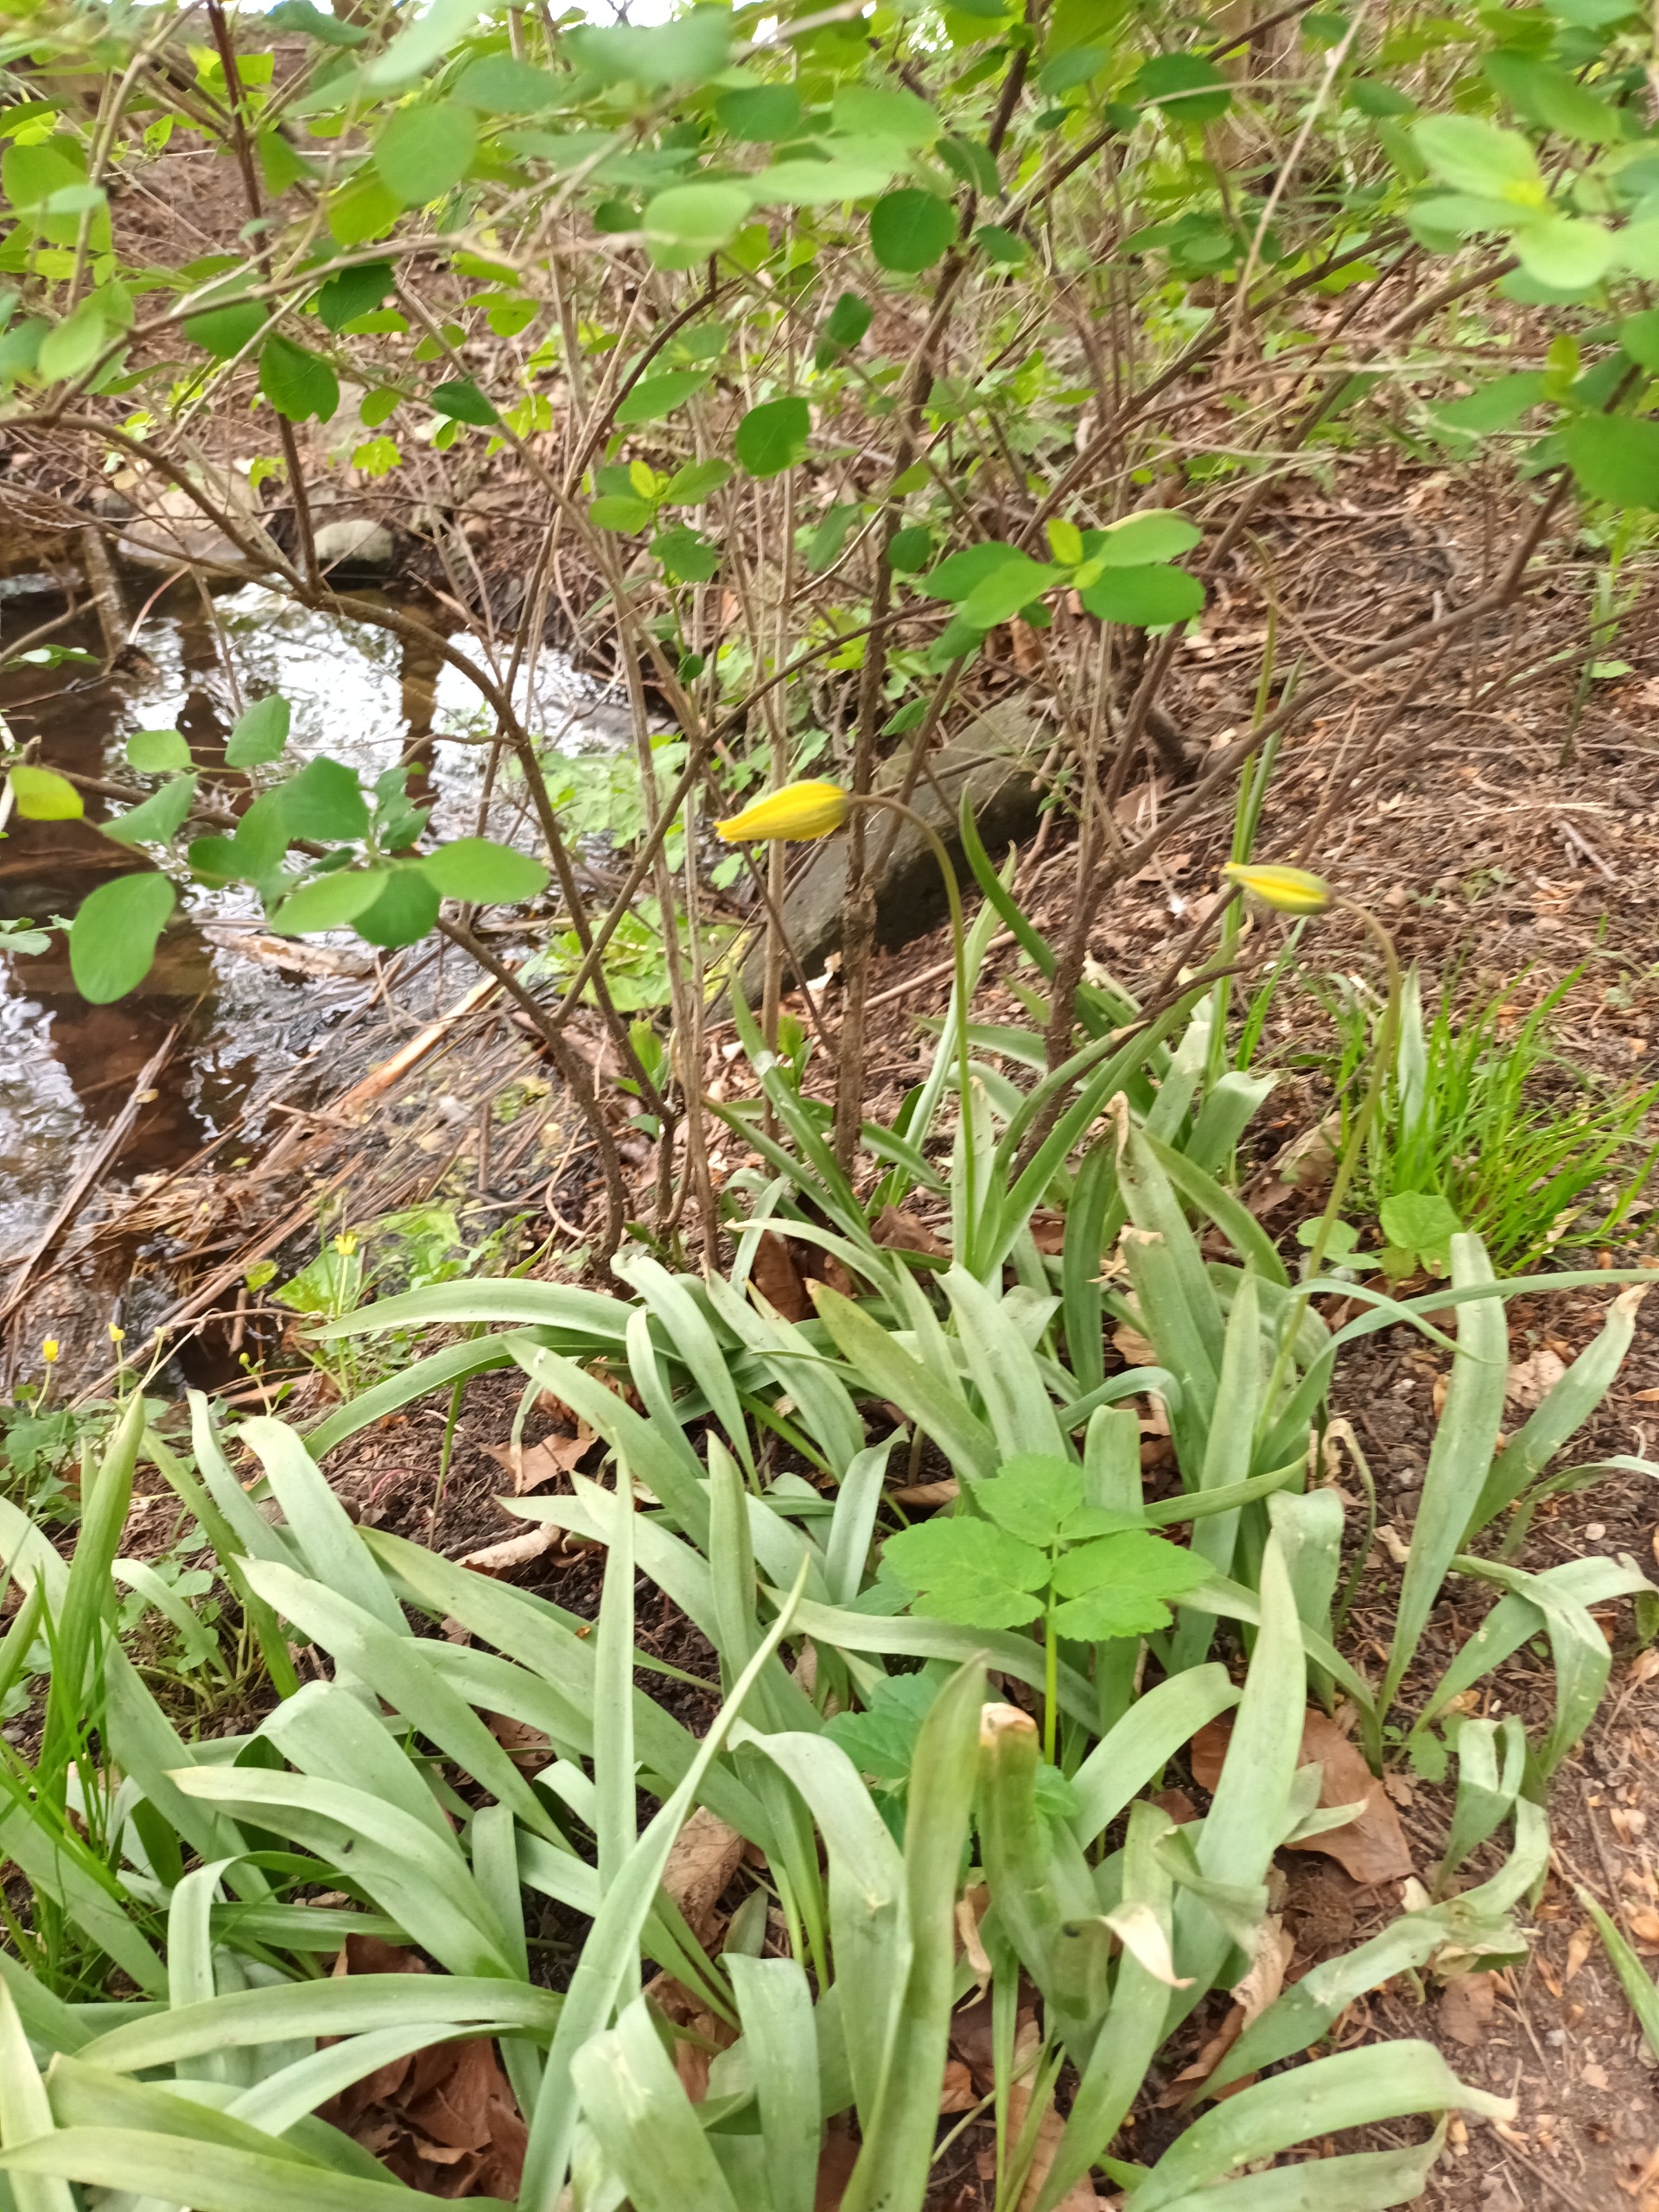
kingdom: Plantae
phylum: Tracheophyta
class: Liliopsida
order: Liliales
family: Liliaceae
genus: Tulipa
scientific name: Tulipa sylvestris
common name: Vild tulipan
